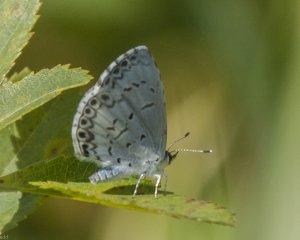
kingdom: Animalia
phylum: Arthropoda
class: Insecta
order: Lepidoptera
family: Lycaenidae
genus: Cyaniris
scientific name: Cyaniris neglecta
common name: Summer Azure
